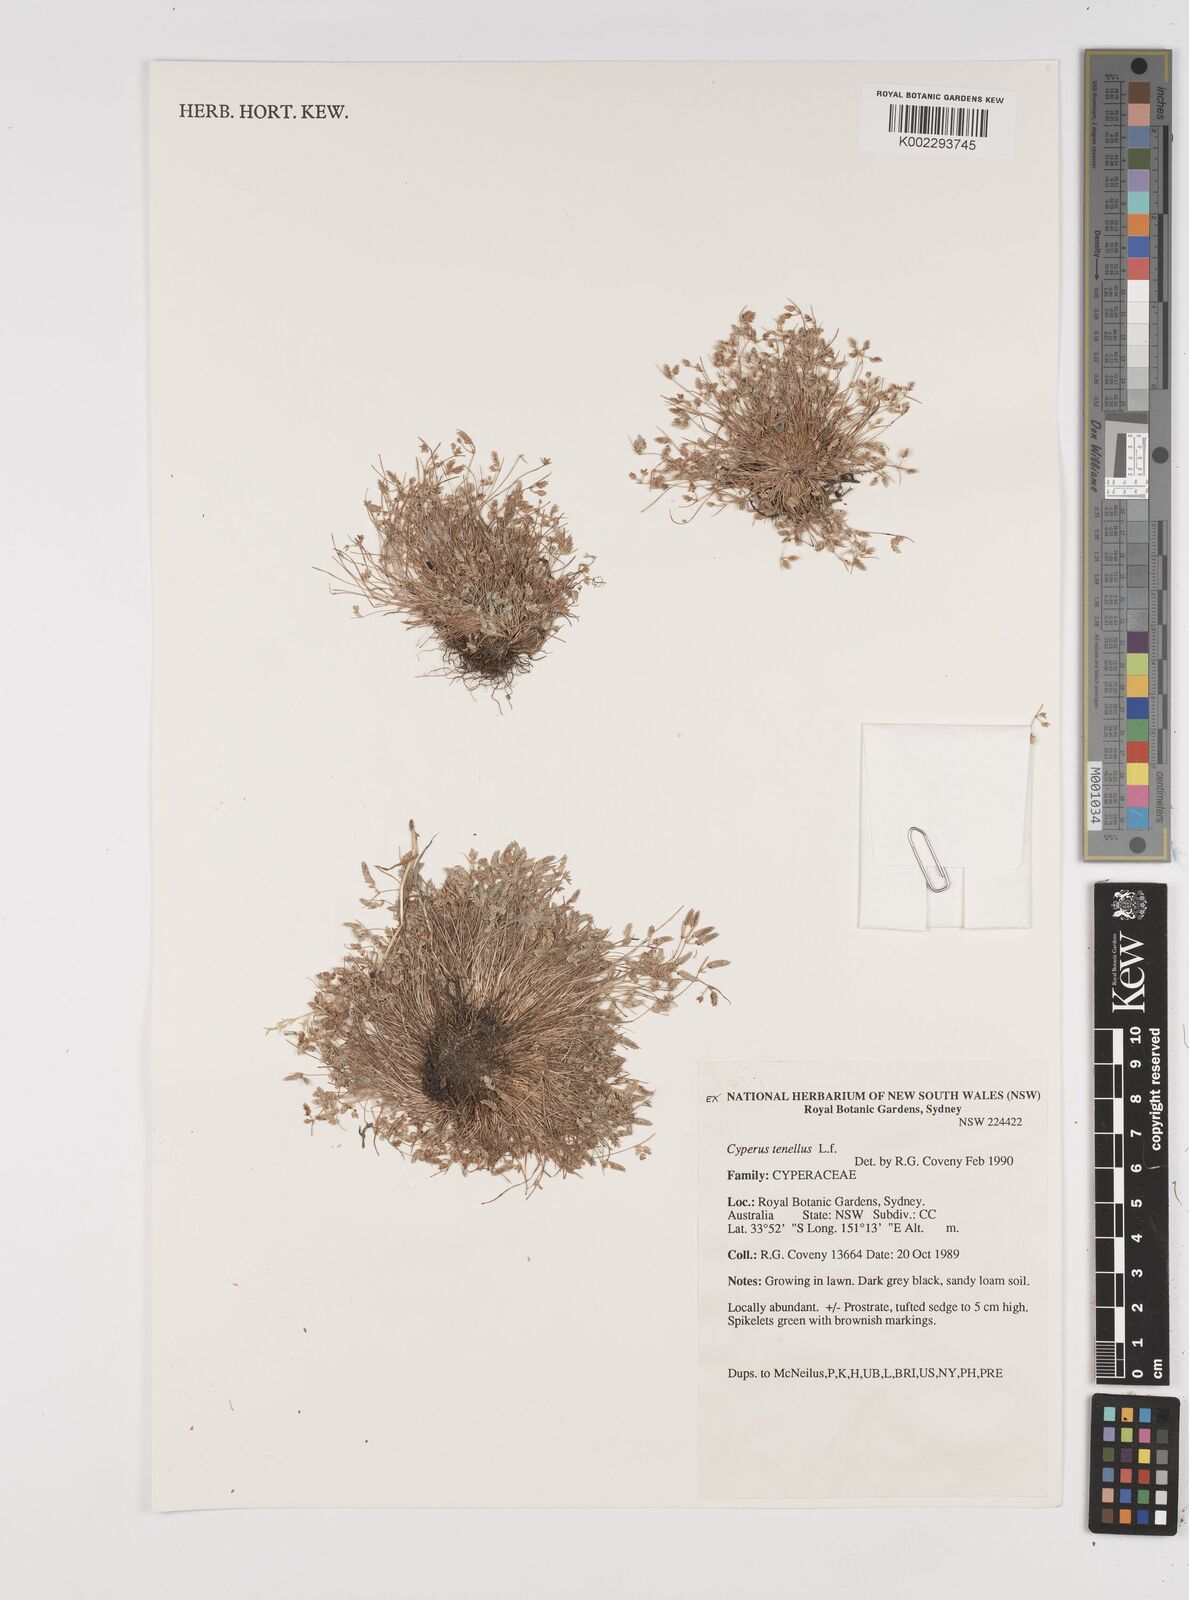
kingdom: Plantae
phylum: Tracheophyta
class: Liliopsida
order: Poales
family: Cyperaceae
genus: Isolepis
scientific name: Isolepis levynsiana
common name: Sedge
